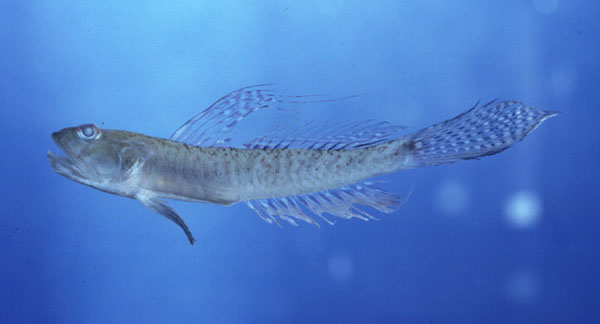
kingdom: Animalia
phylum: Chordata
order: Perciformes
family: Gobiidae
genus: Oligolepis
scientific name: Oligolepis keiensis
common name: Kei goby
